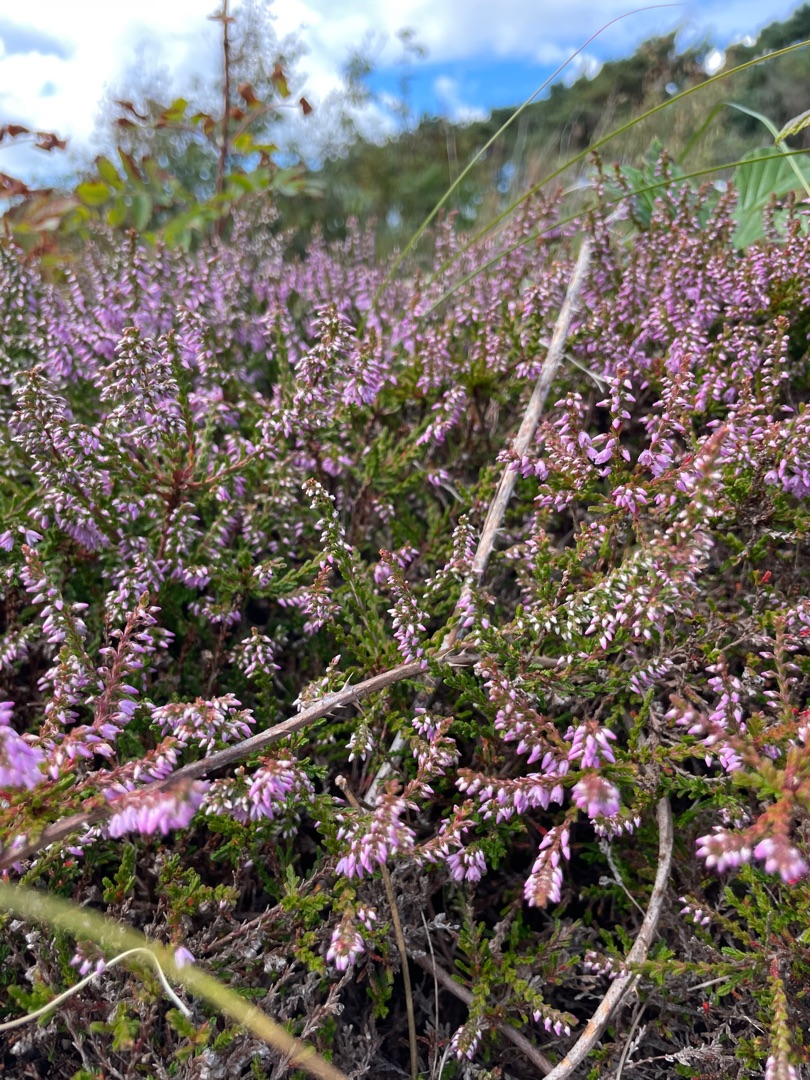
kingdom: Plantae
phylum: Tracheophyta
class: Magnoliopsida
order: Ericales
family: Ericaceae
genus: Calluna
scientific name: Calluna vulgaris
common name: Hedelyng
